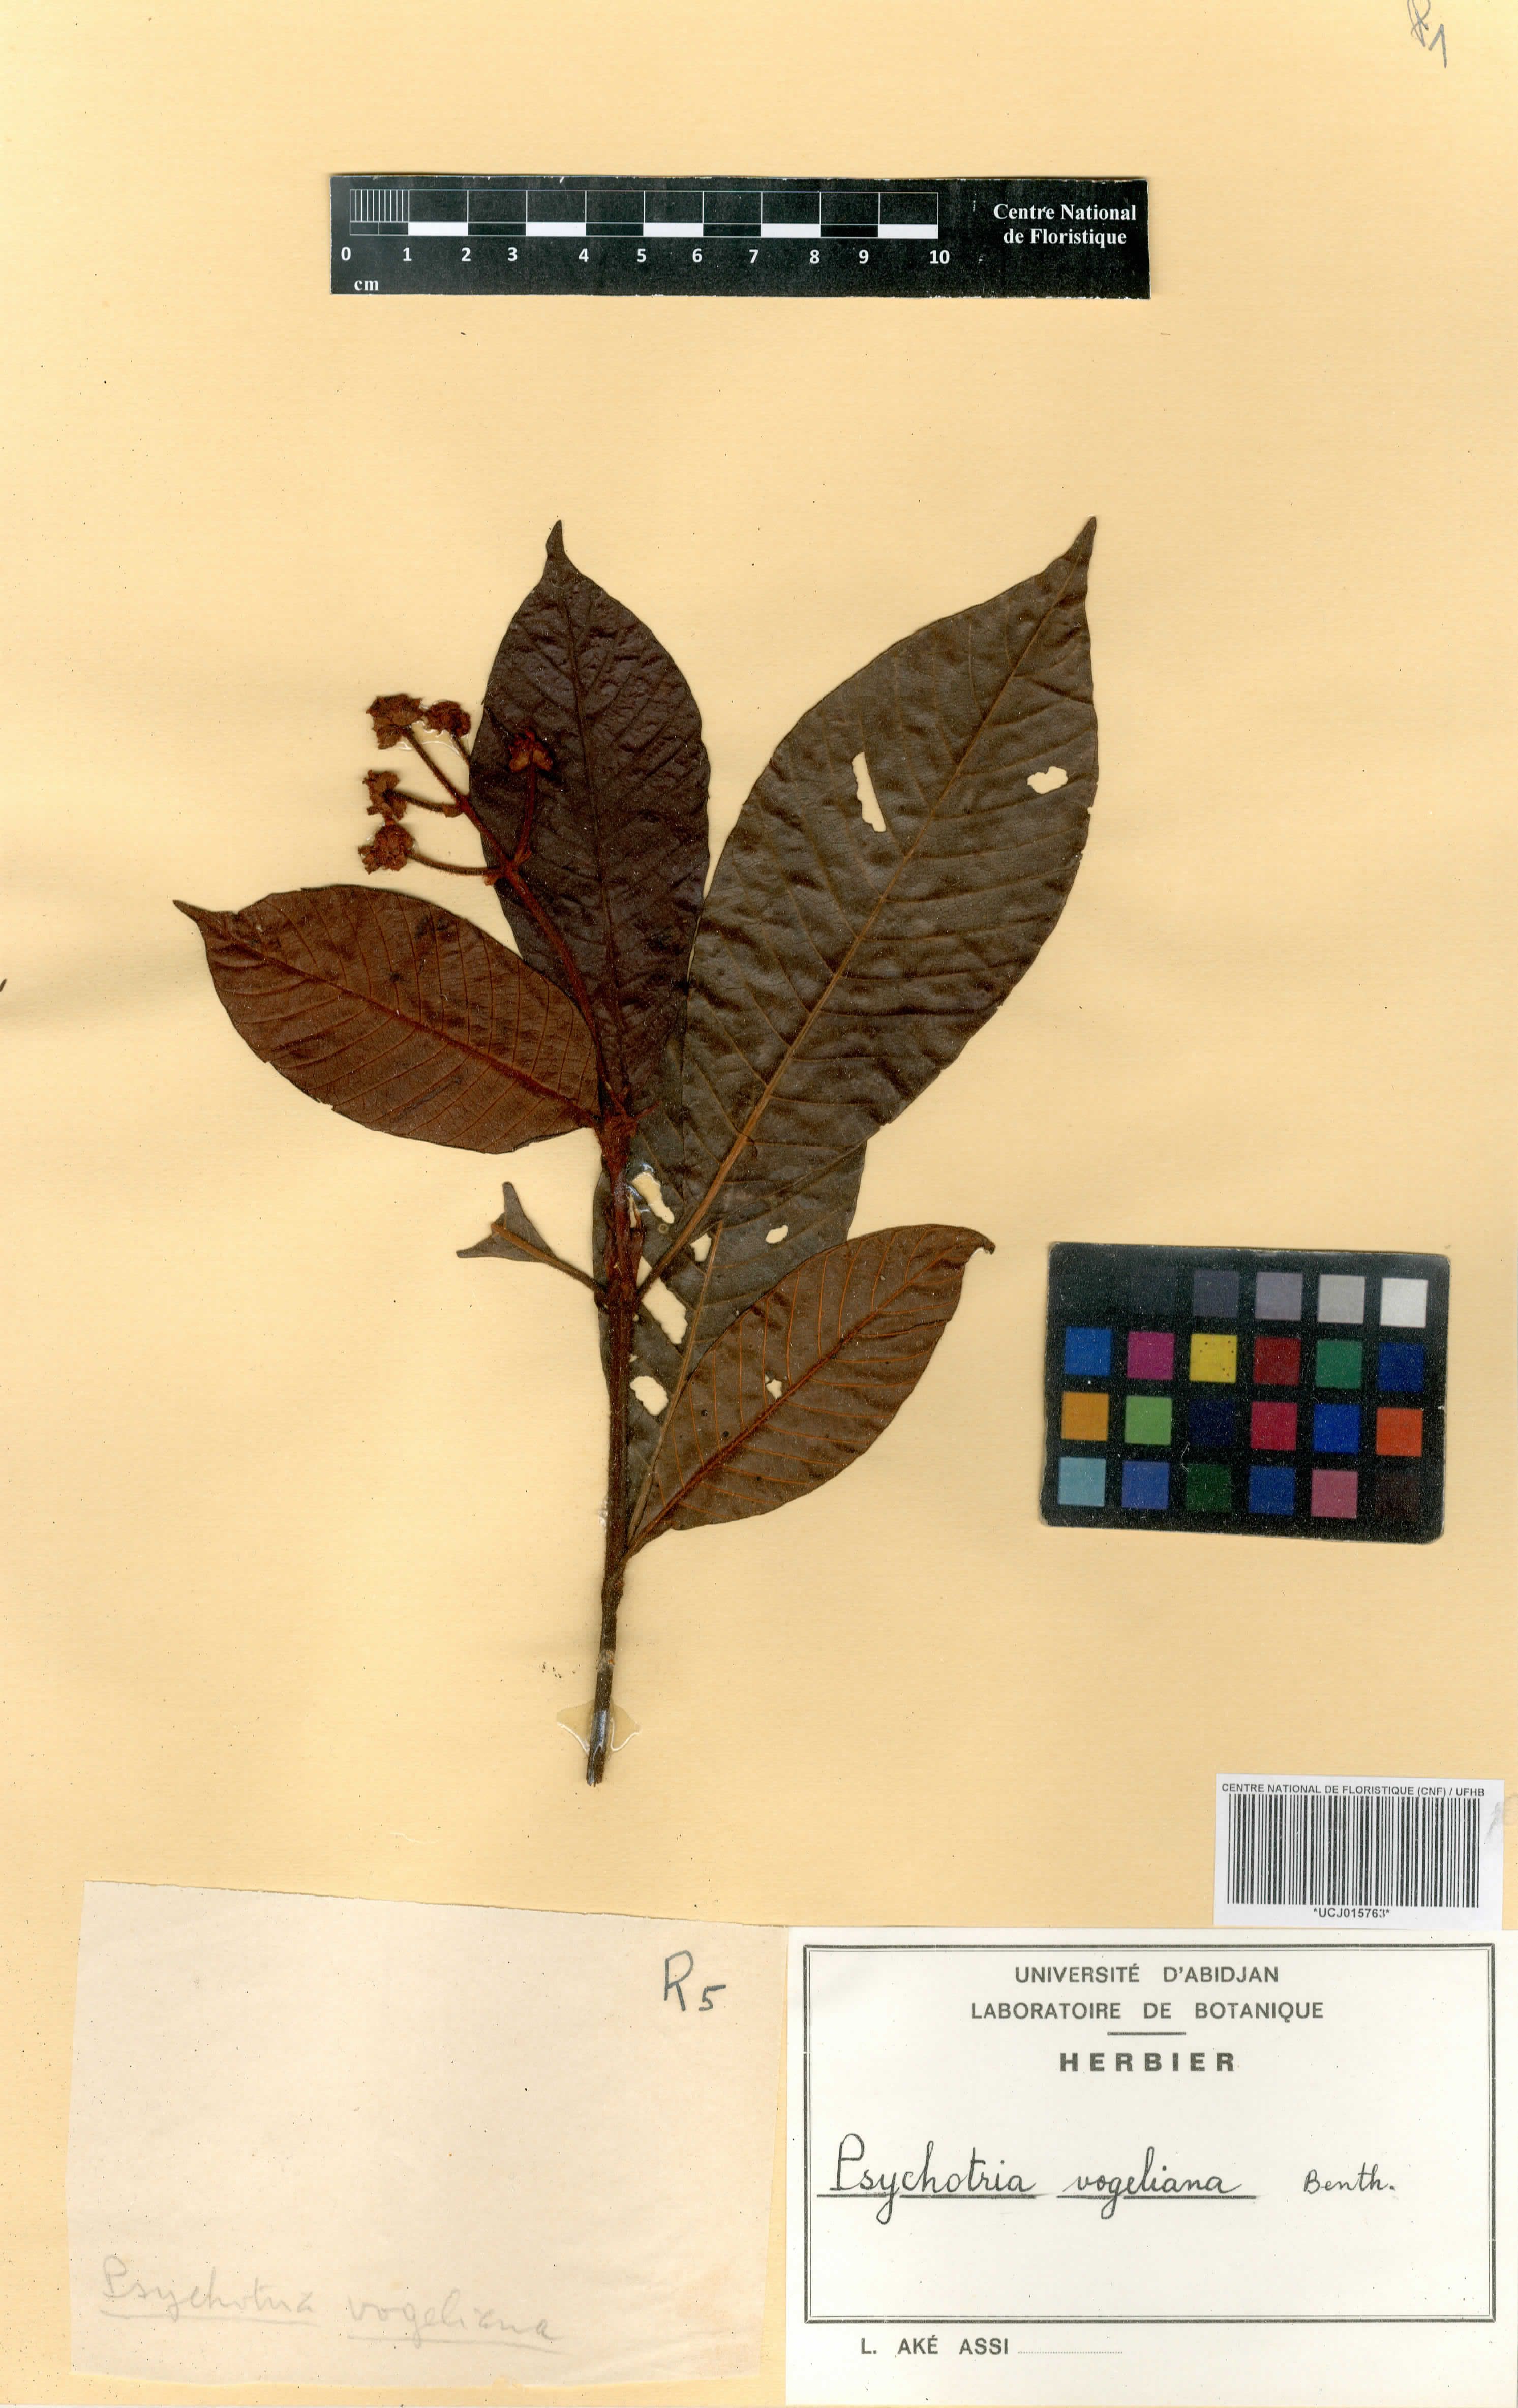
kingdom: Plantae
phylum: Tracheophyta
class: Magnoliopsida
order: Gentianales
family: Rubiaceae
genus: Psychotria
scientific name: Psychotria vogeliana
